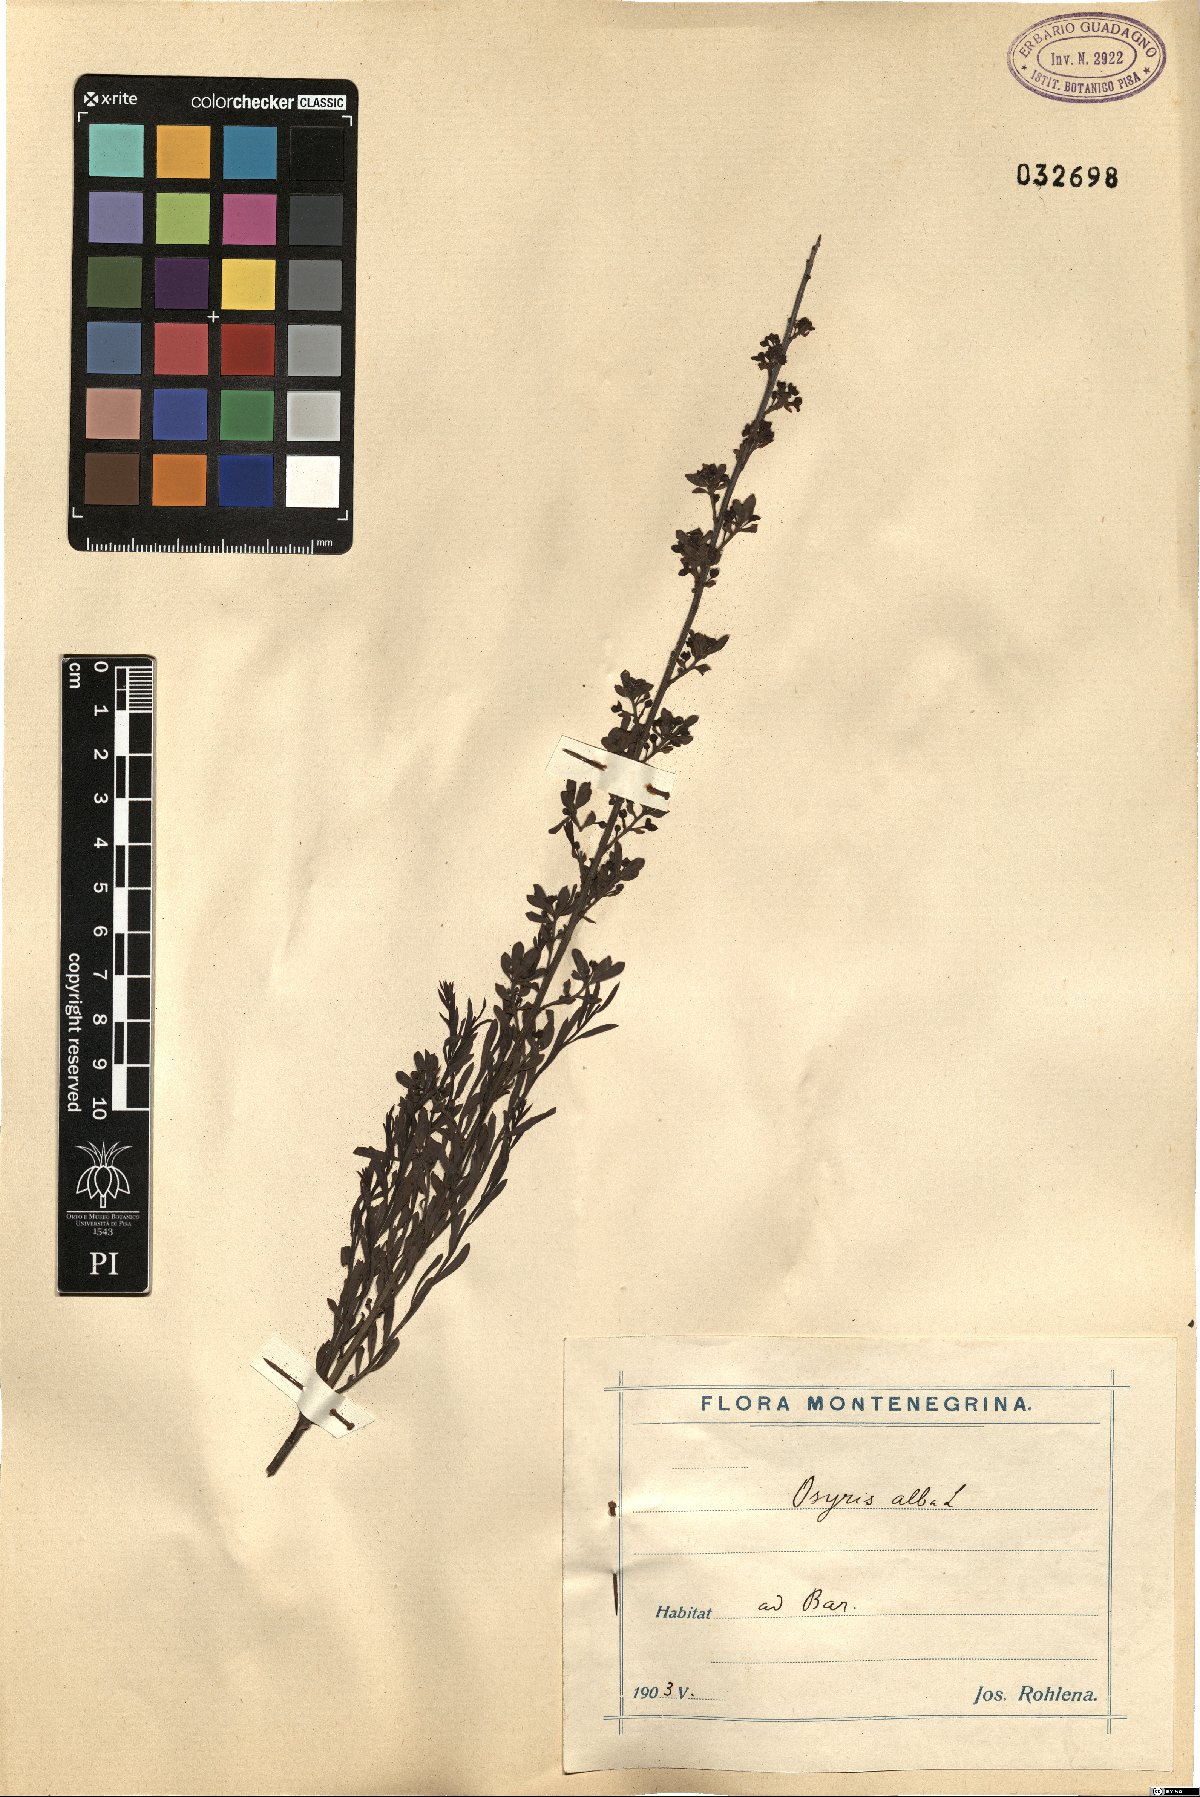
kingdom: Plantae
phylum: Tracheophyta
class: Magnoliopsida
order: Santalales
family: Santalaceae
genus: Osyris
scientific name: Osyris alba
